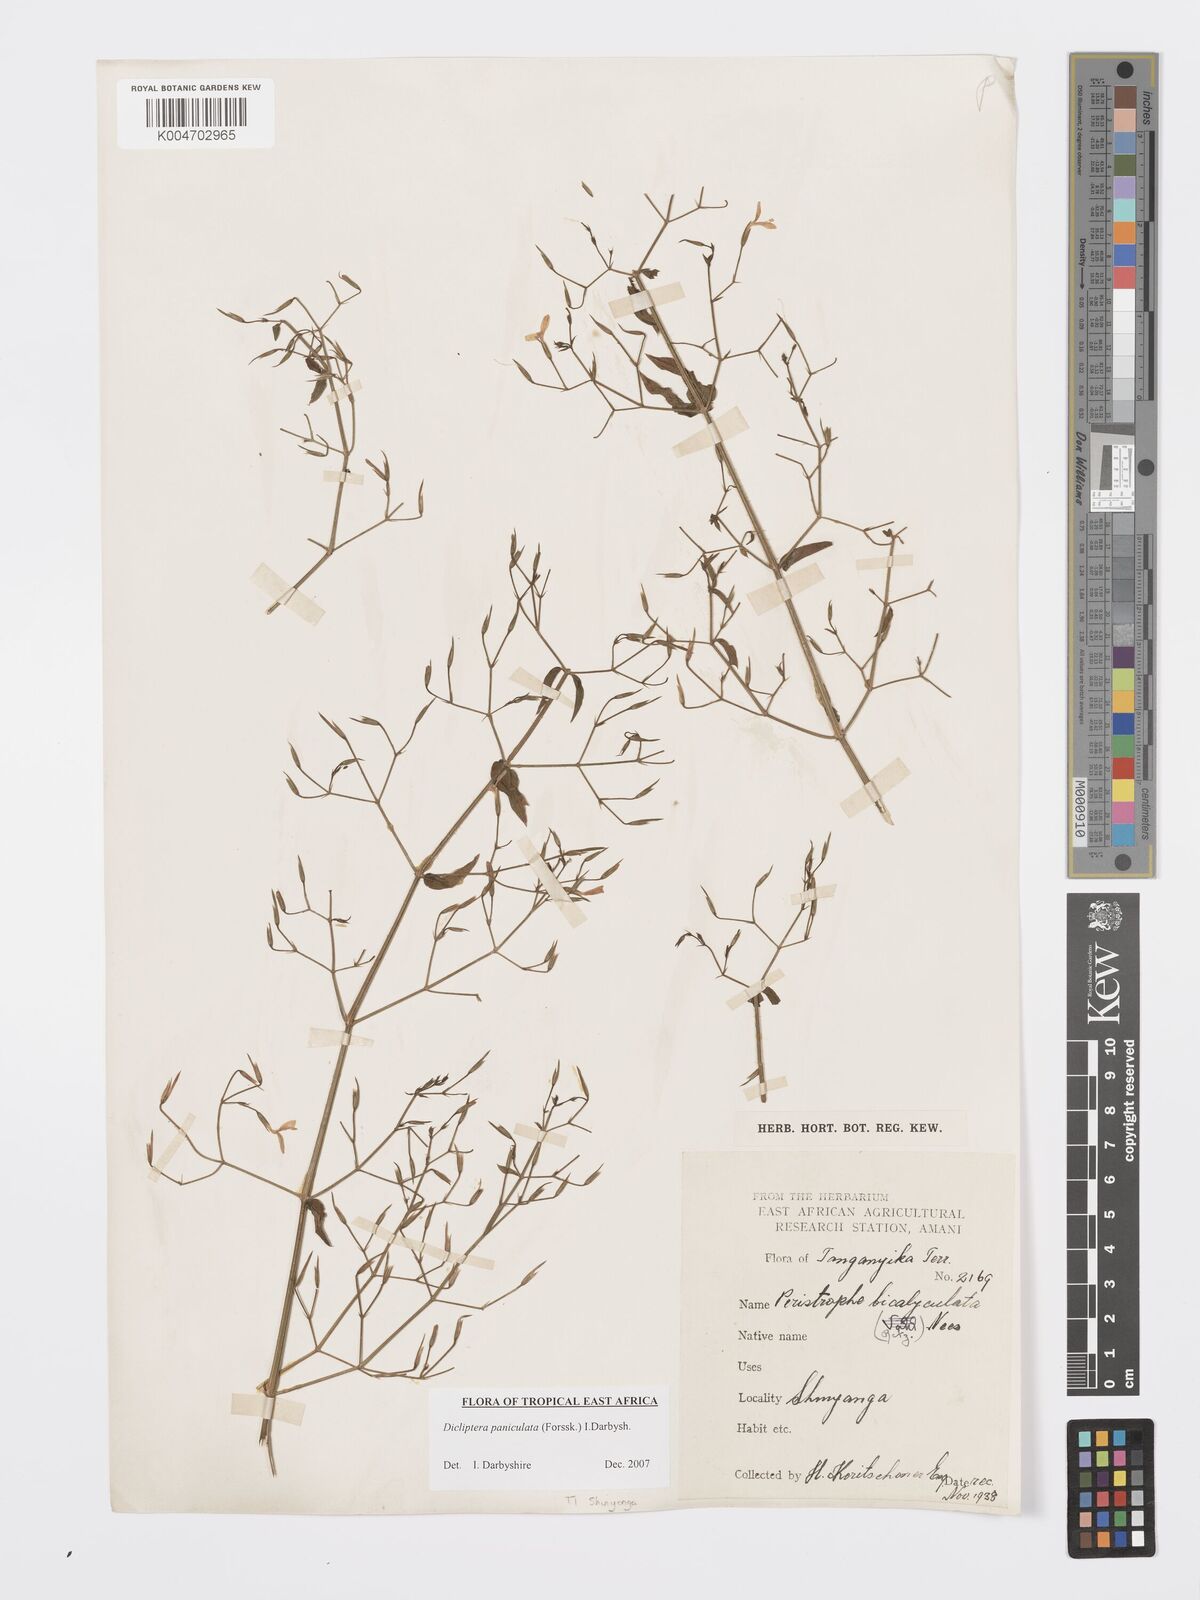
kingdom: Plantae
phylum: Tracheophyta
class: Magnoliopsida
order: Lamiales
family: Acanthaceae
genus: Dicliptera
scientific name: Dicliptera paniculata
